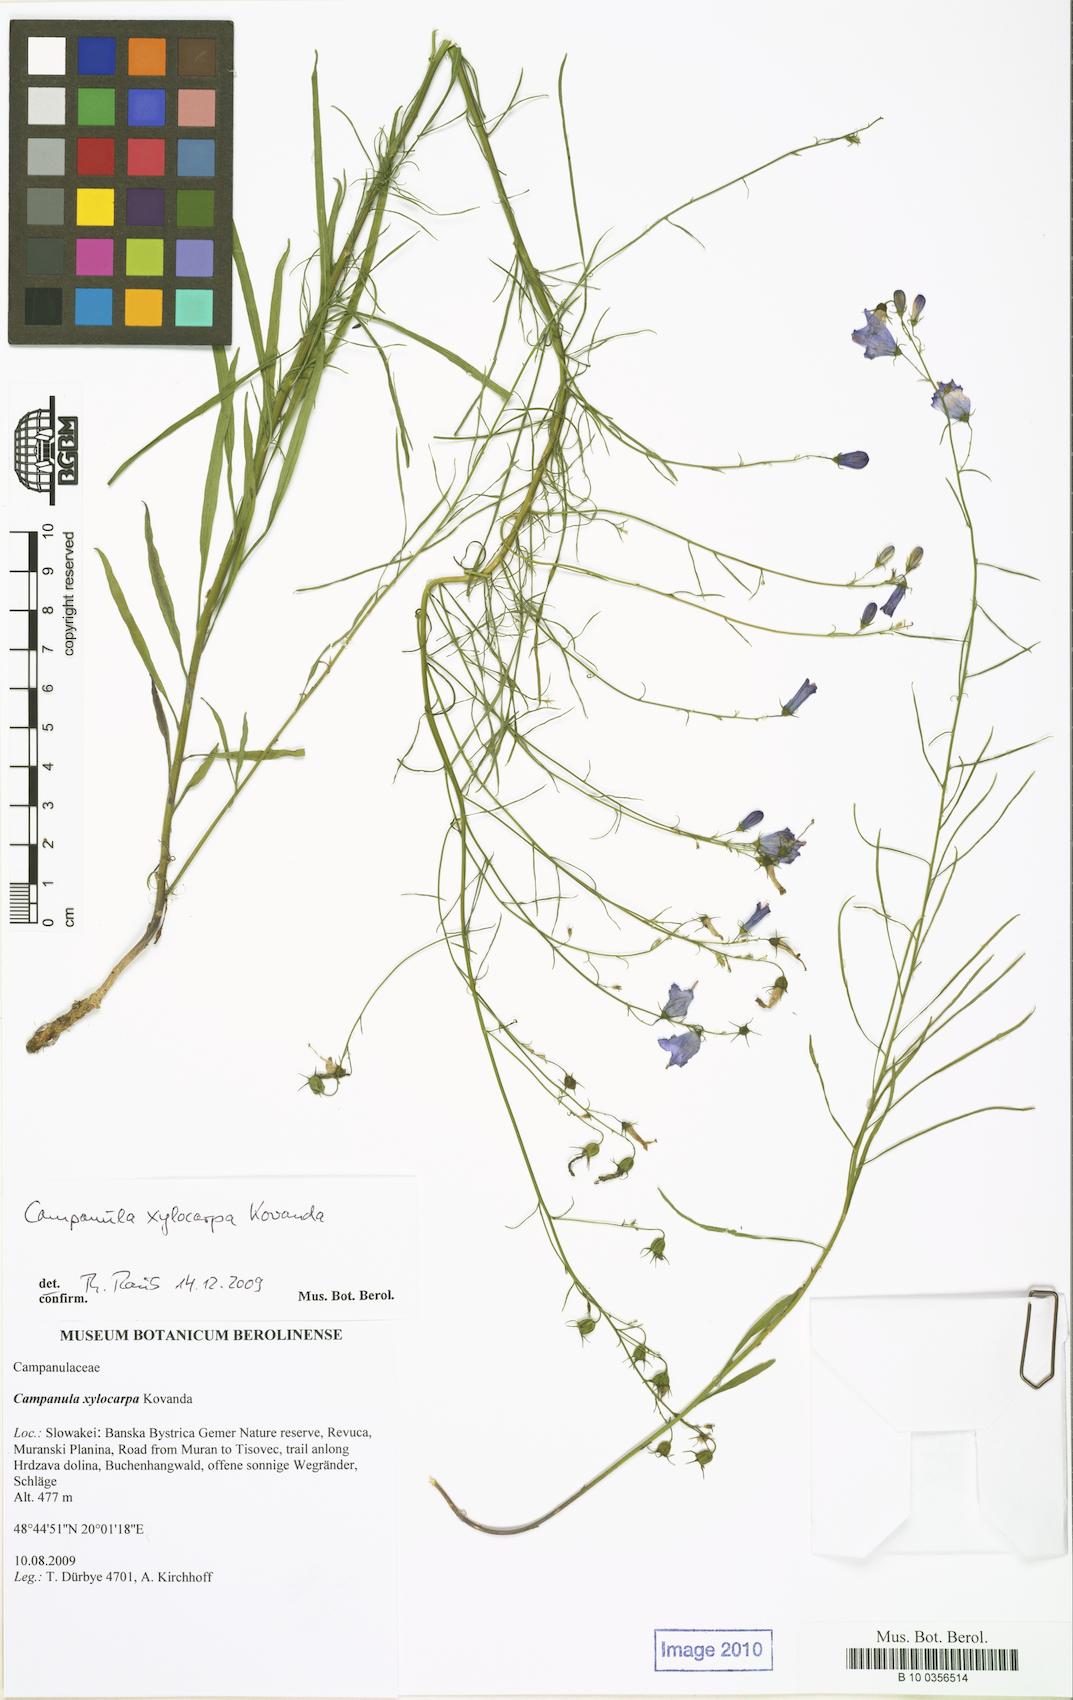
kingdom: Plantae
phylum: Tracheophyta
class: Magnoliopsida
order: Asterales
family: Campanulaceae
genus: Campanula
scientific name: Campanula xylocarpa
